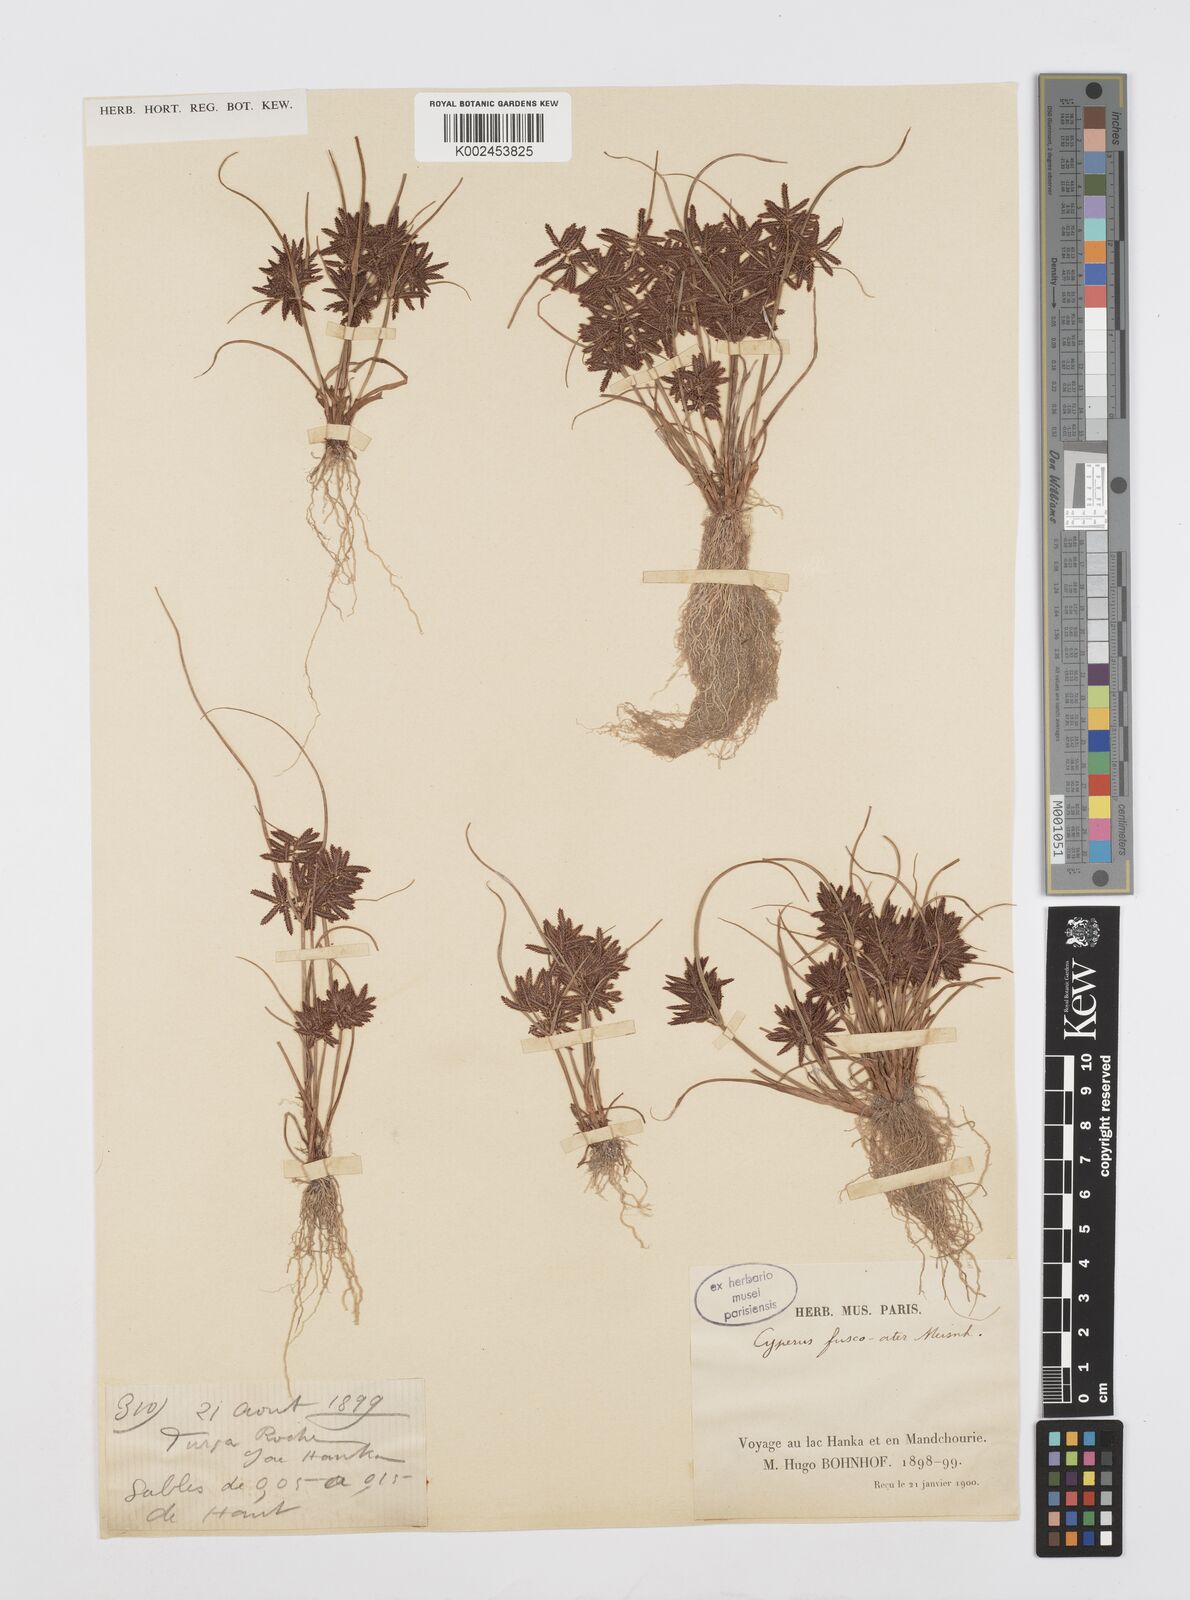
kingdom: Plantae
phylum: Tracheophyta
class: Liliopsida
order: Poales
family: Cyperaceae
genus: Cyperus
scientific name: Cyperus flavidus
